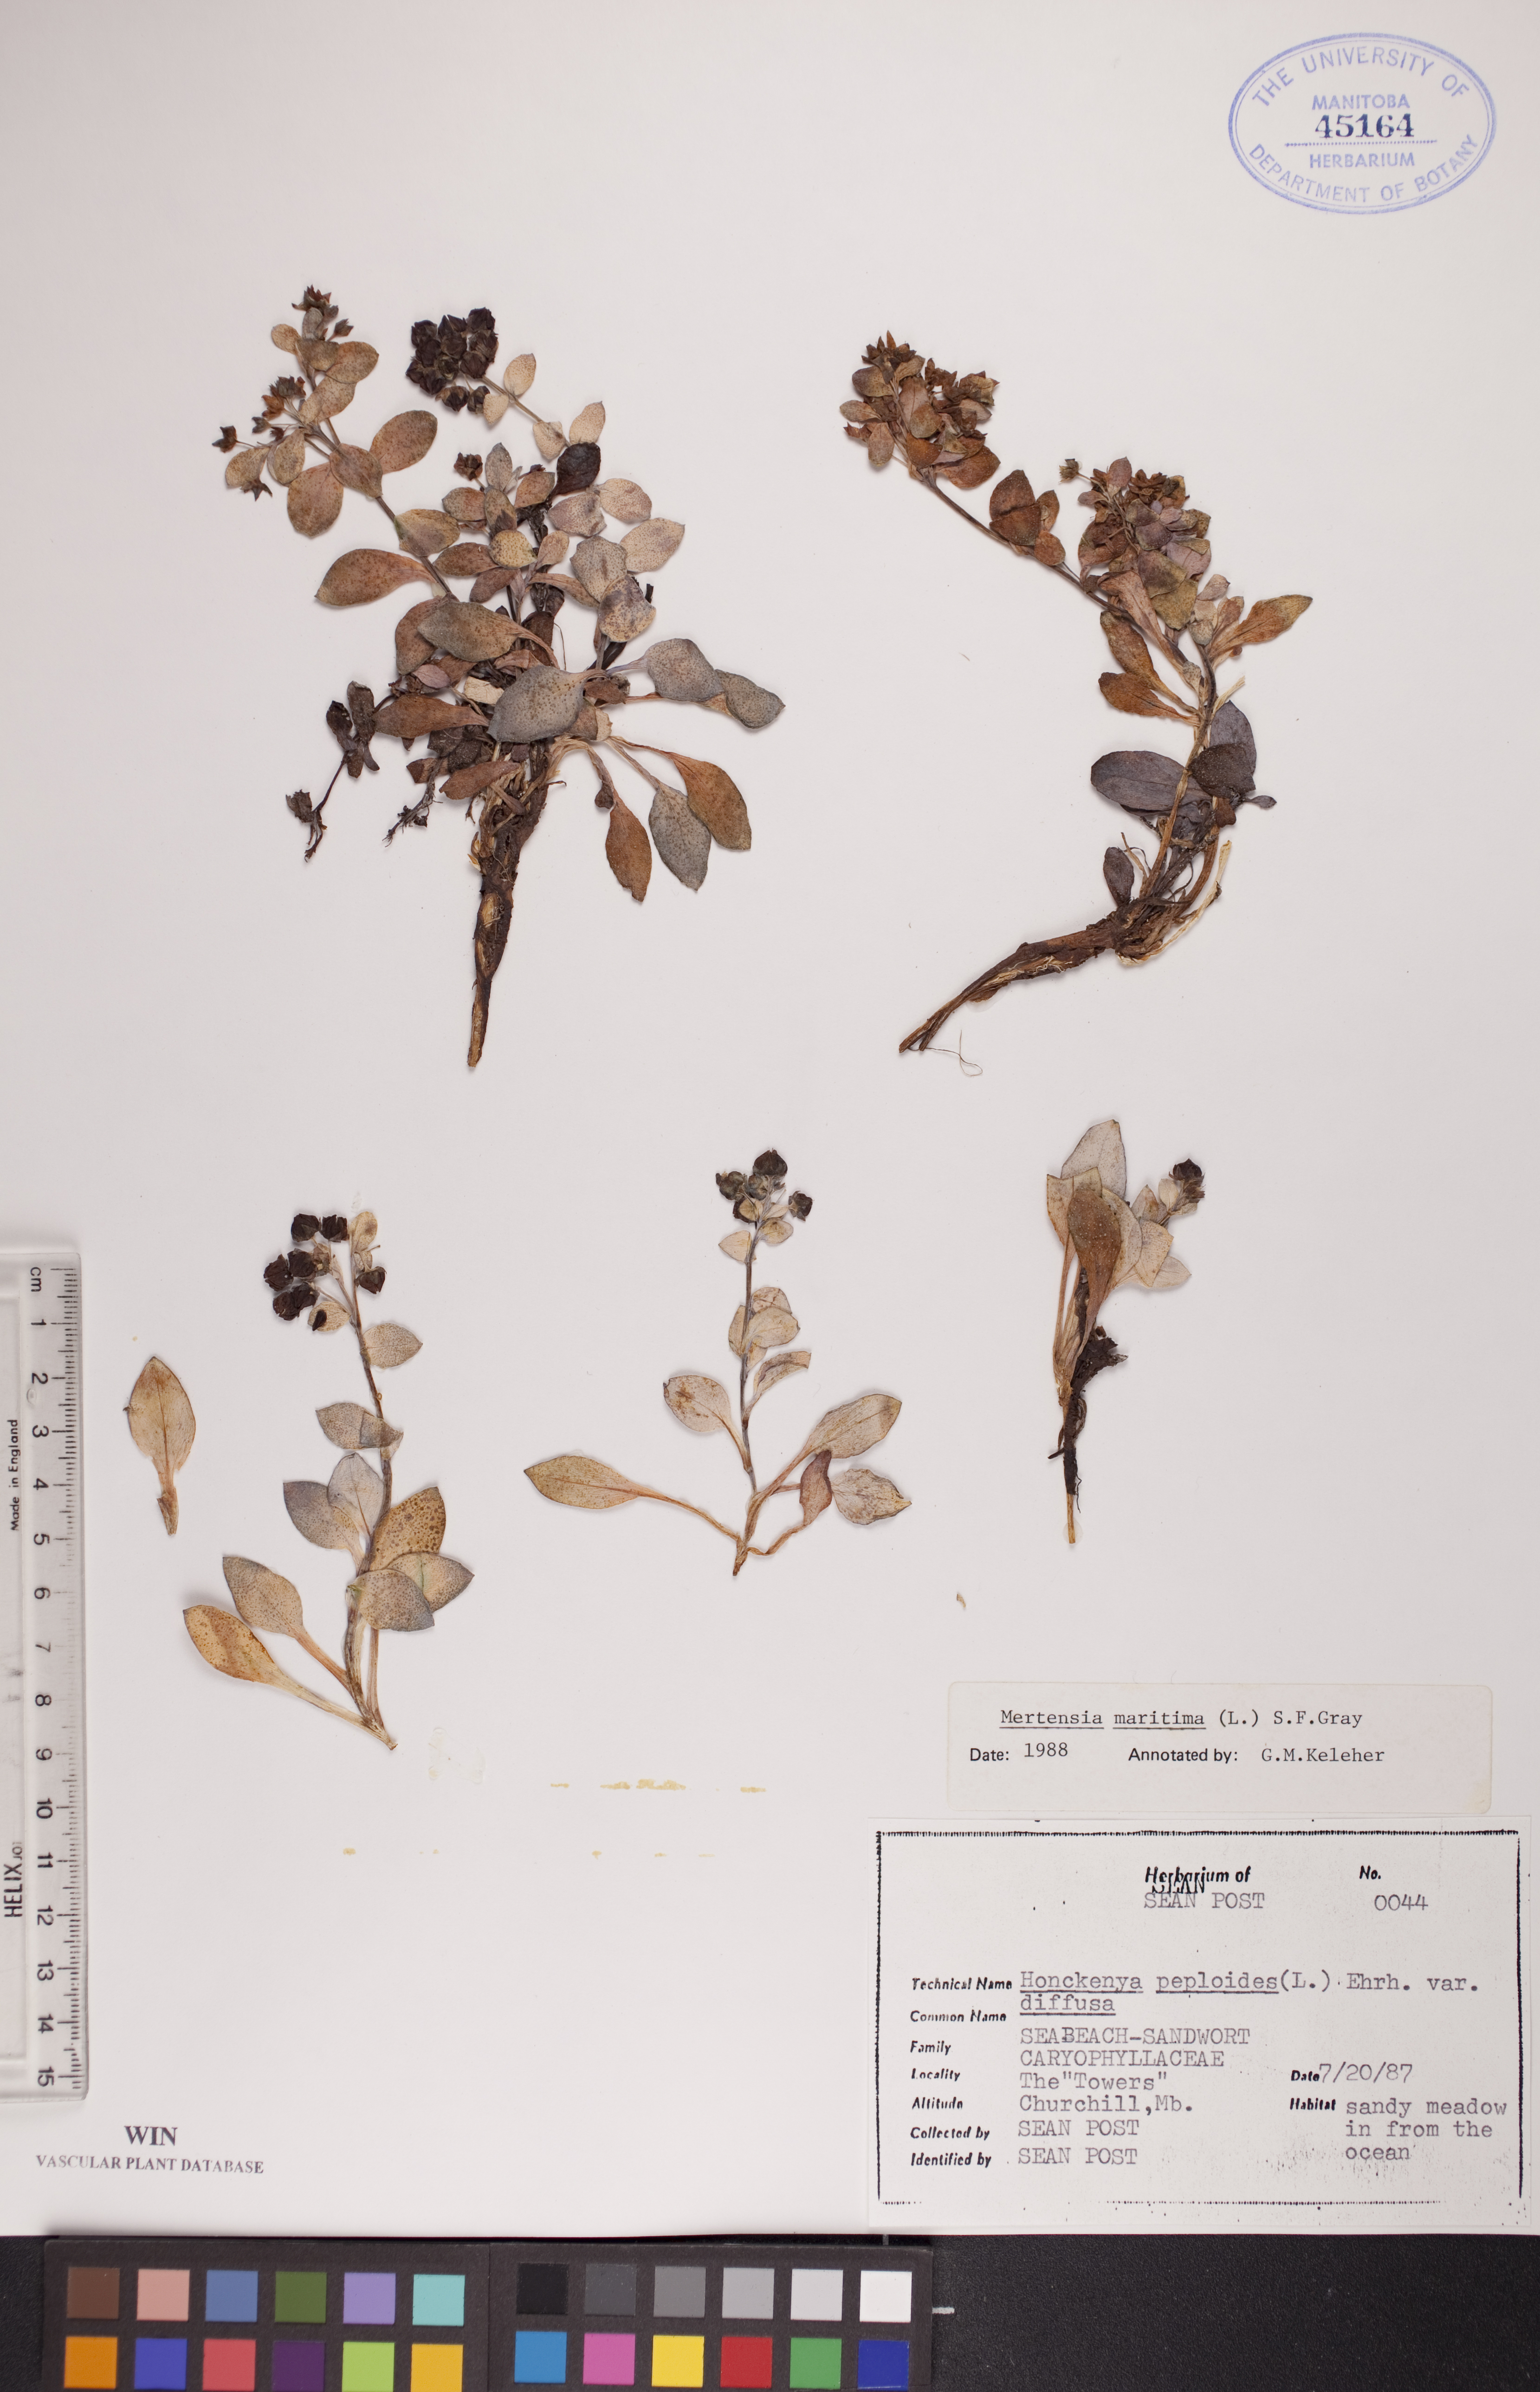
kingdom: Plantae
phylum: Tracheophyta
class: Magnoliopsida
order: Boraginales
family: Boraginaceae
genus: Mertensia
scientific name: Mertensia maritima
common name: Oysterplant
